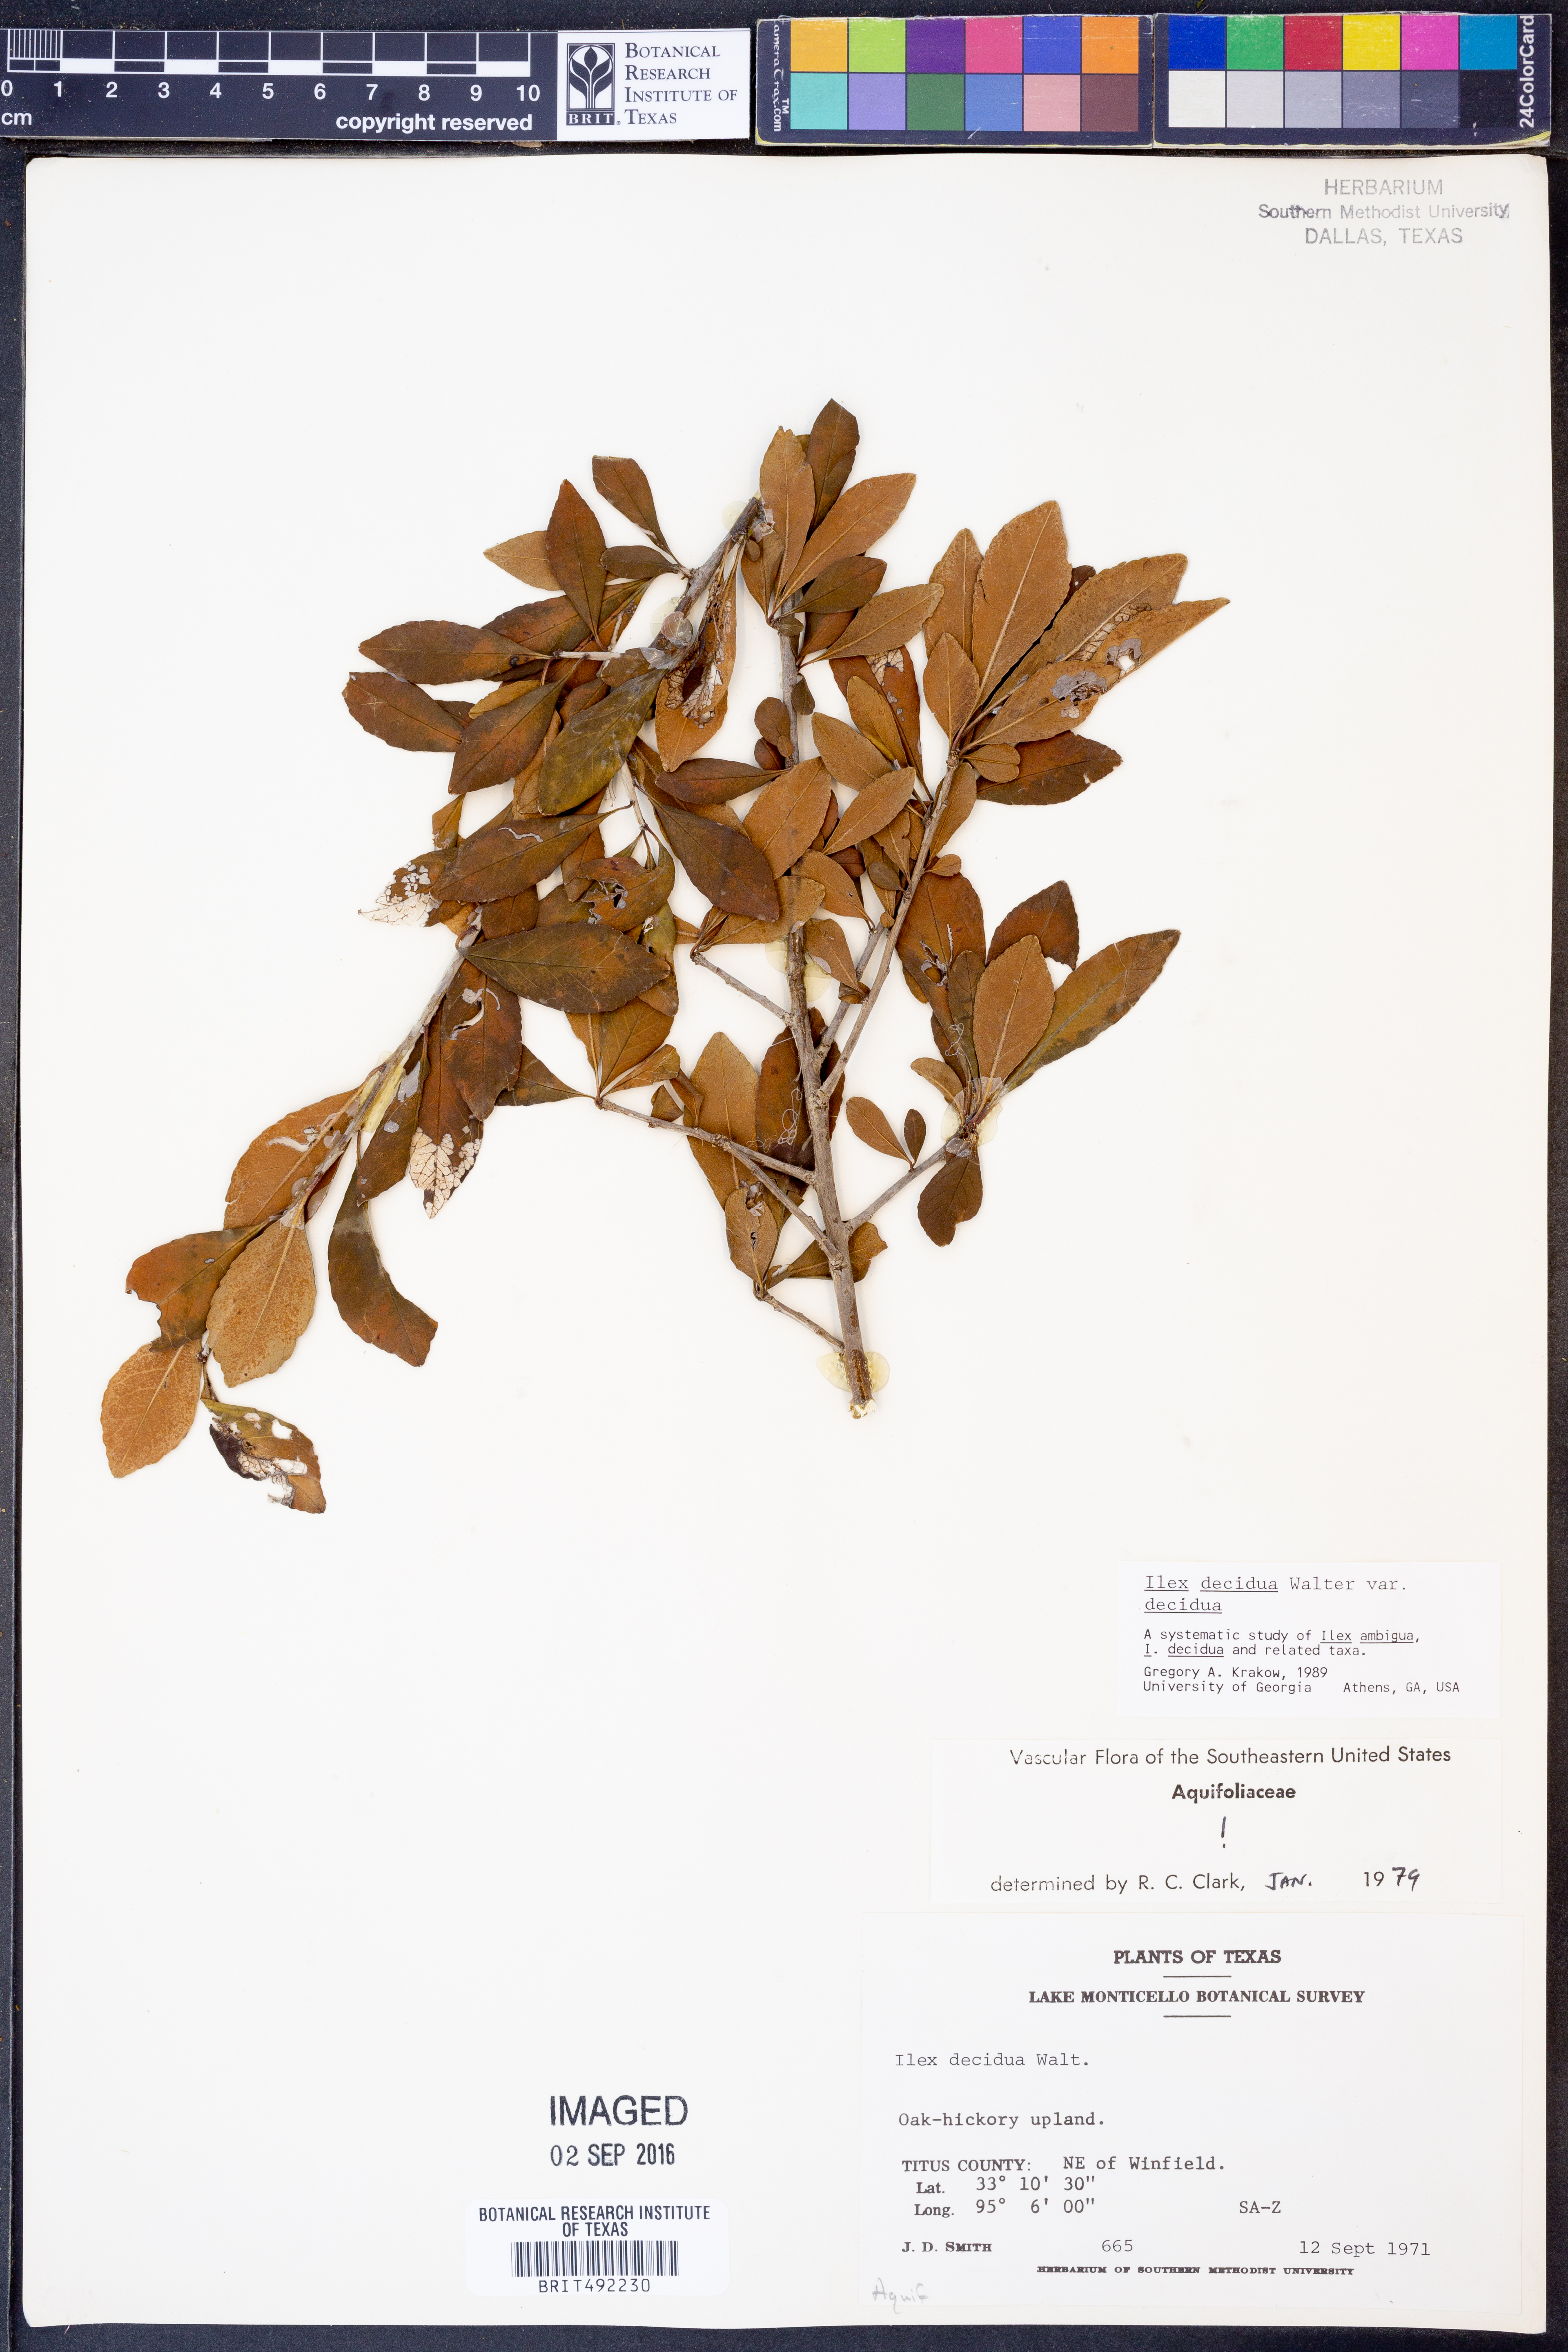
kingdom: Plantae
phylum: Tracheophyta
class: Magnoliopsida
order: Aquifoliales
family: Aquifoliaceae
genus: Ilex
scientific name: Ilex decidua
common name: Possum-haw
